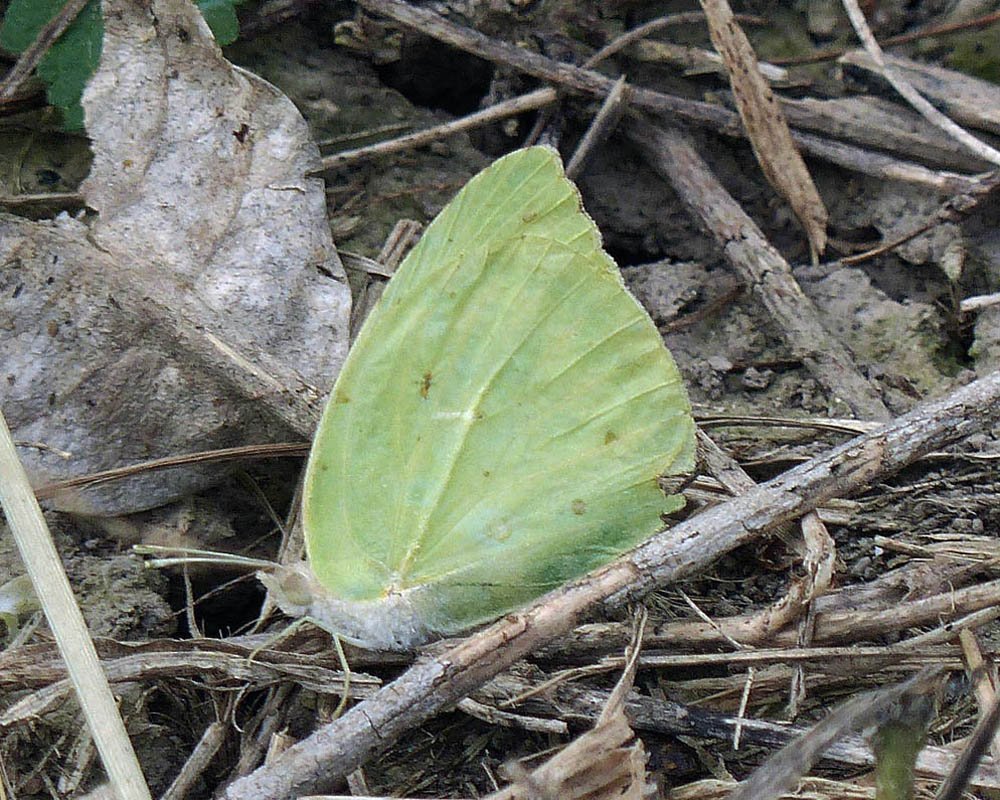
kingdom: Animalia
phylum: Arthropoda
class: Insecta
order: Lepidoptera
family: Pieridae
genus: Kricogonia
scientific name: Kricogonia lyside
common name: Lyside Sulphur
